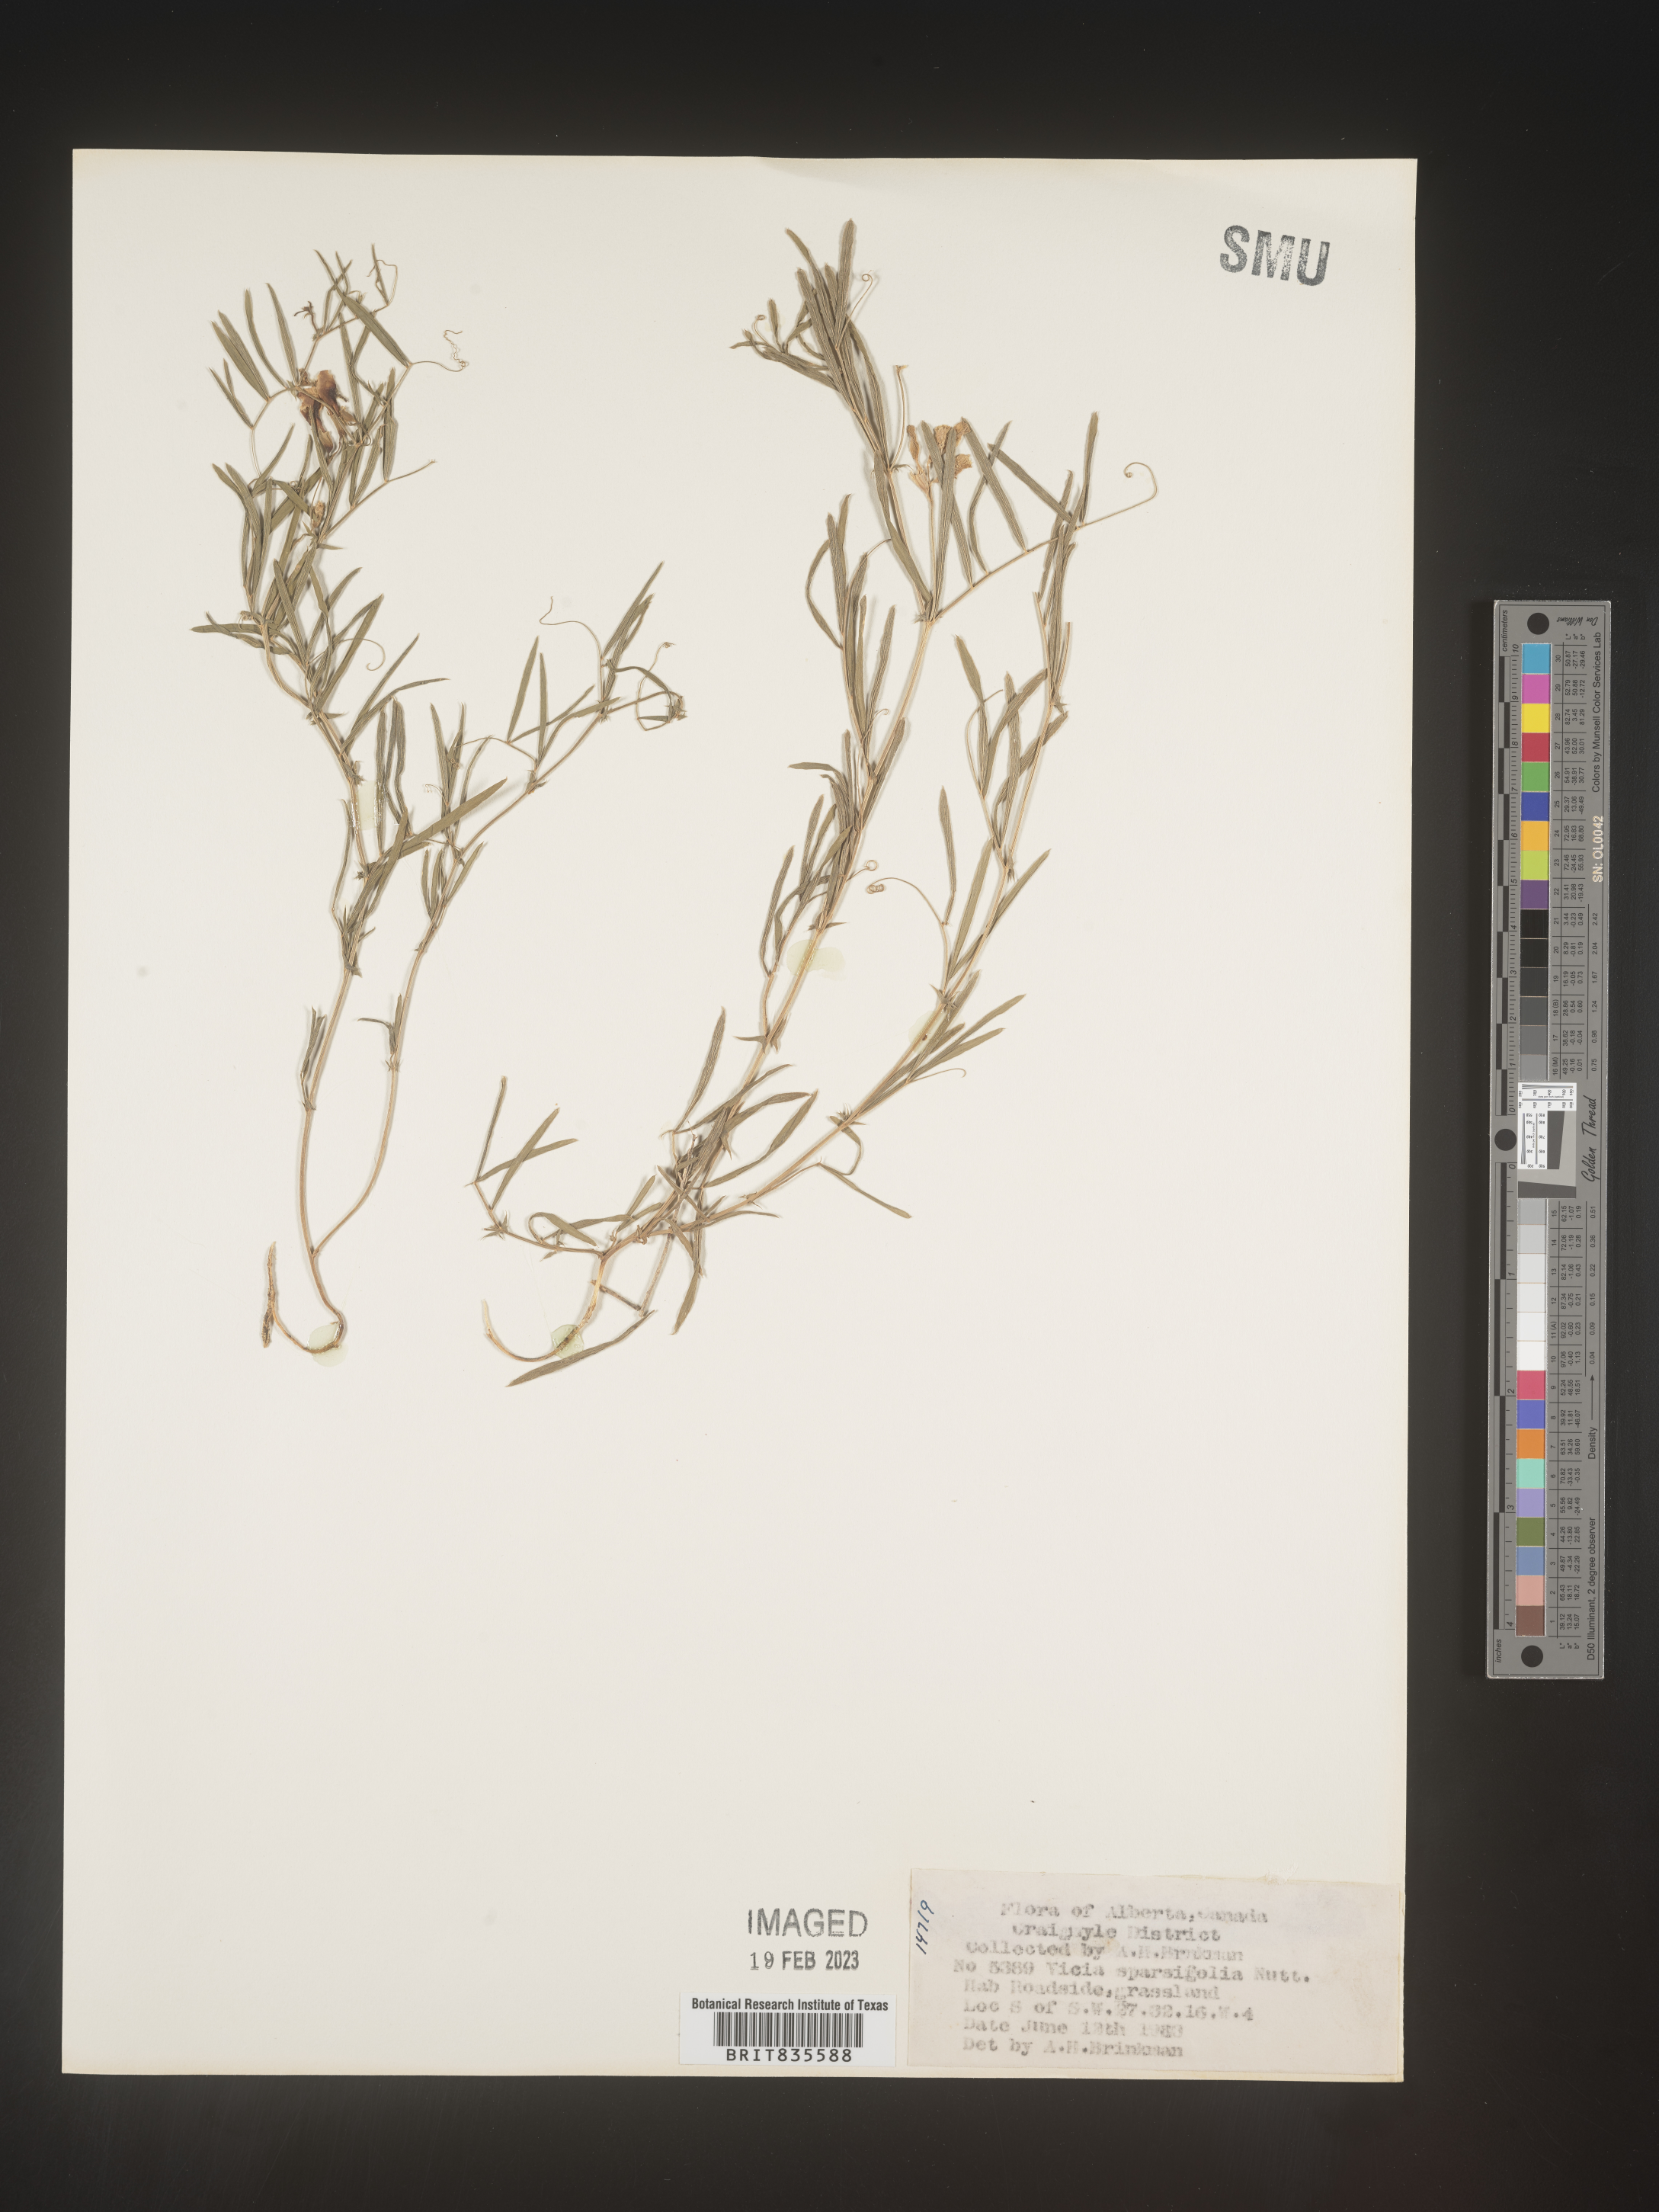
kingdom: Plantae
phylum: Tracheophyta
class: Magnoliopsida
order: Fabales
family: Fabaceae
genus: Vicia
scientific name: Vicia americana
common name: American vetch
